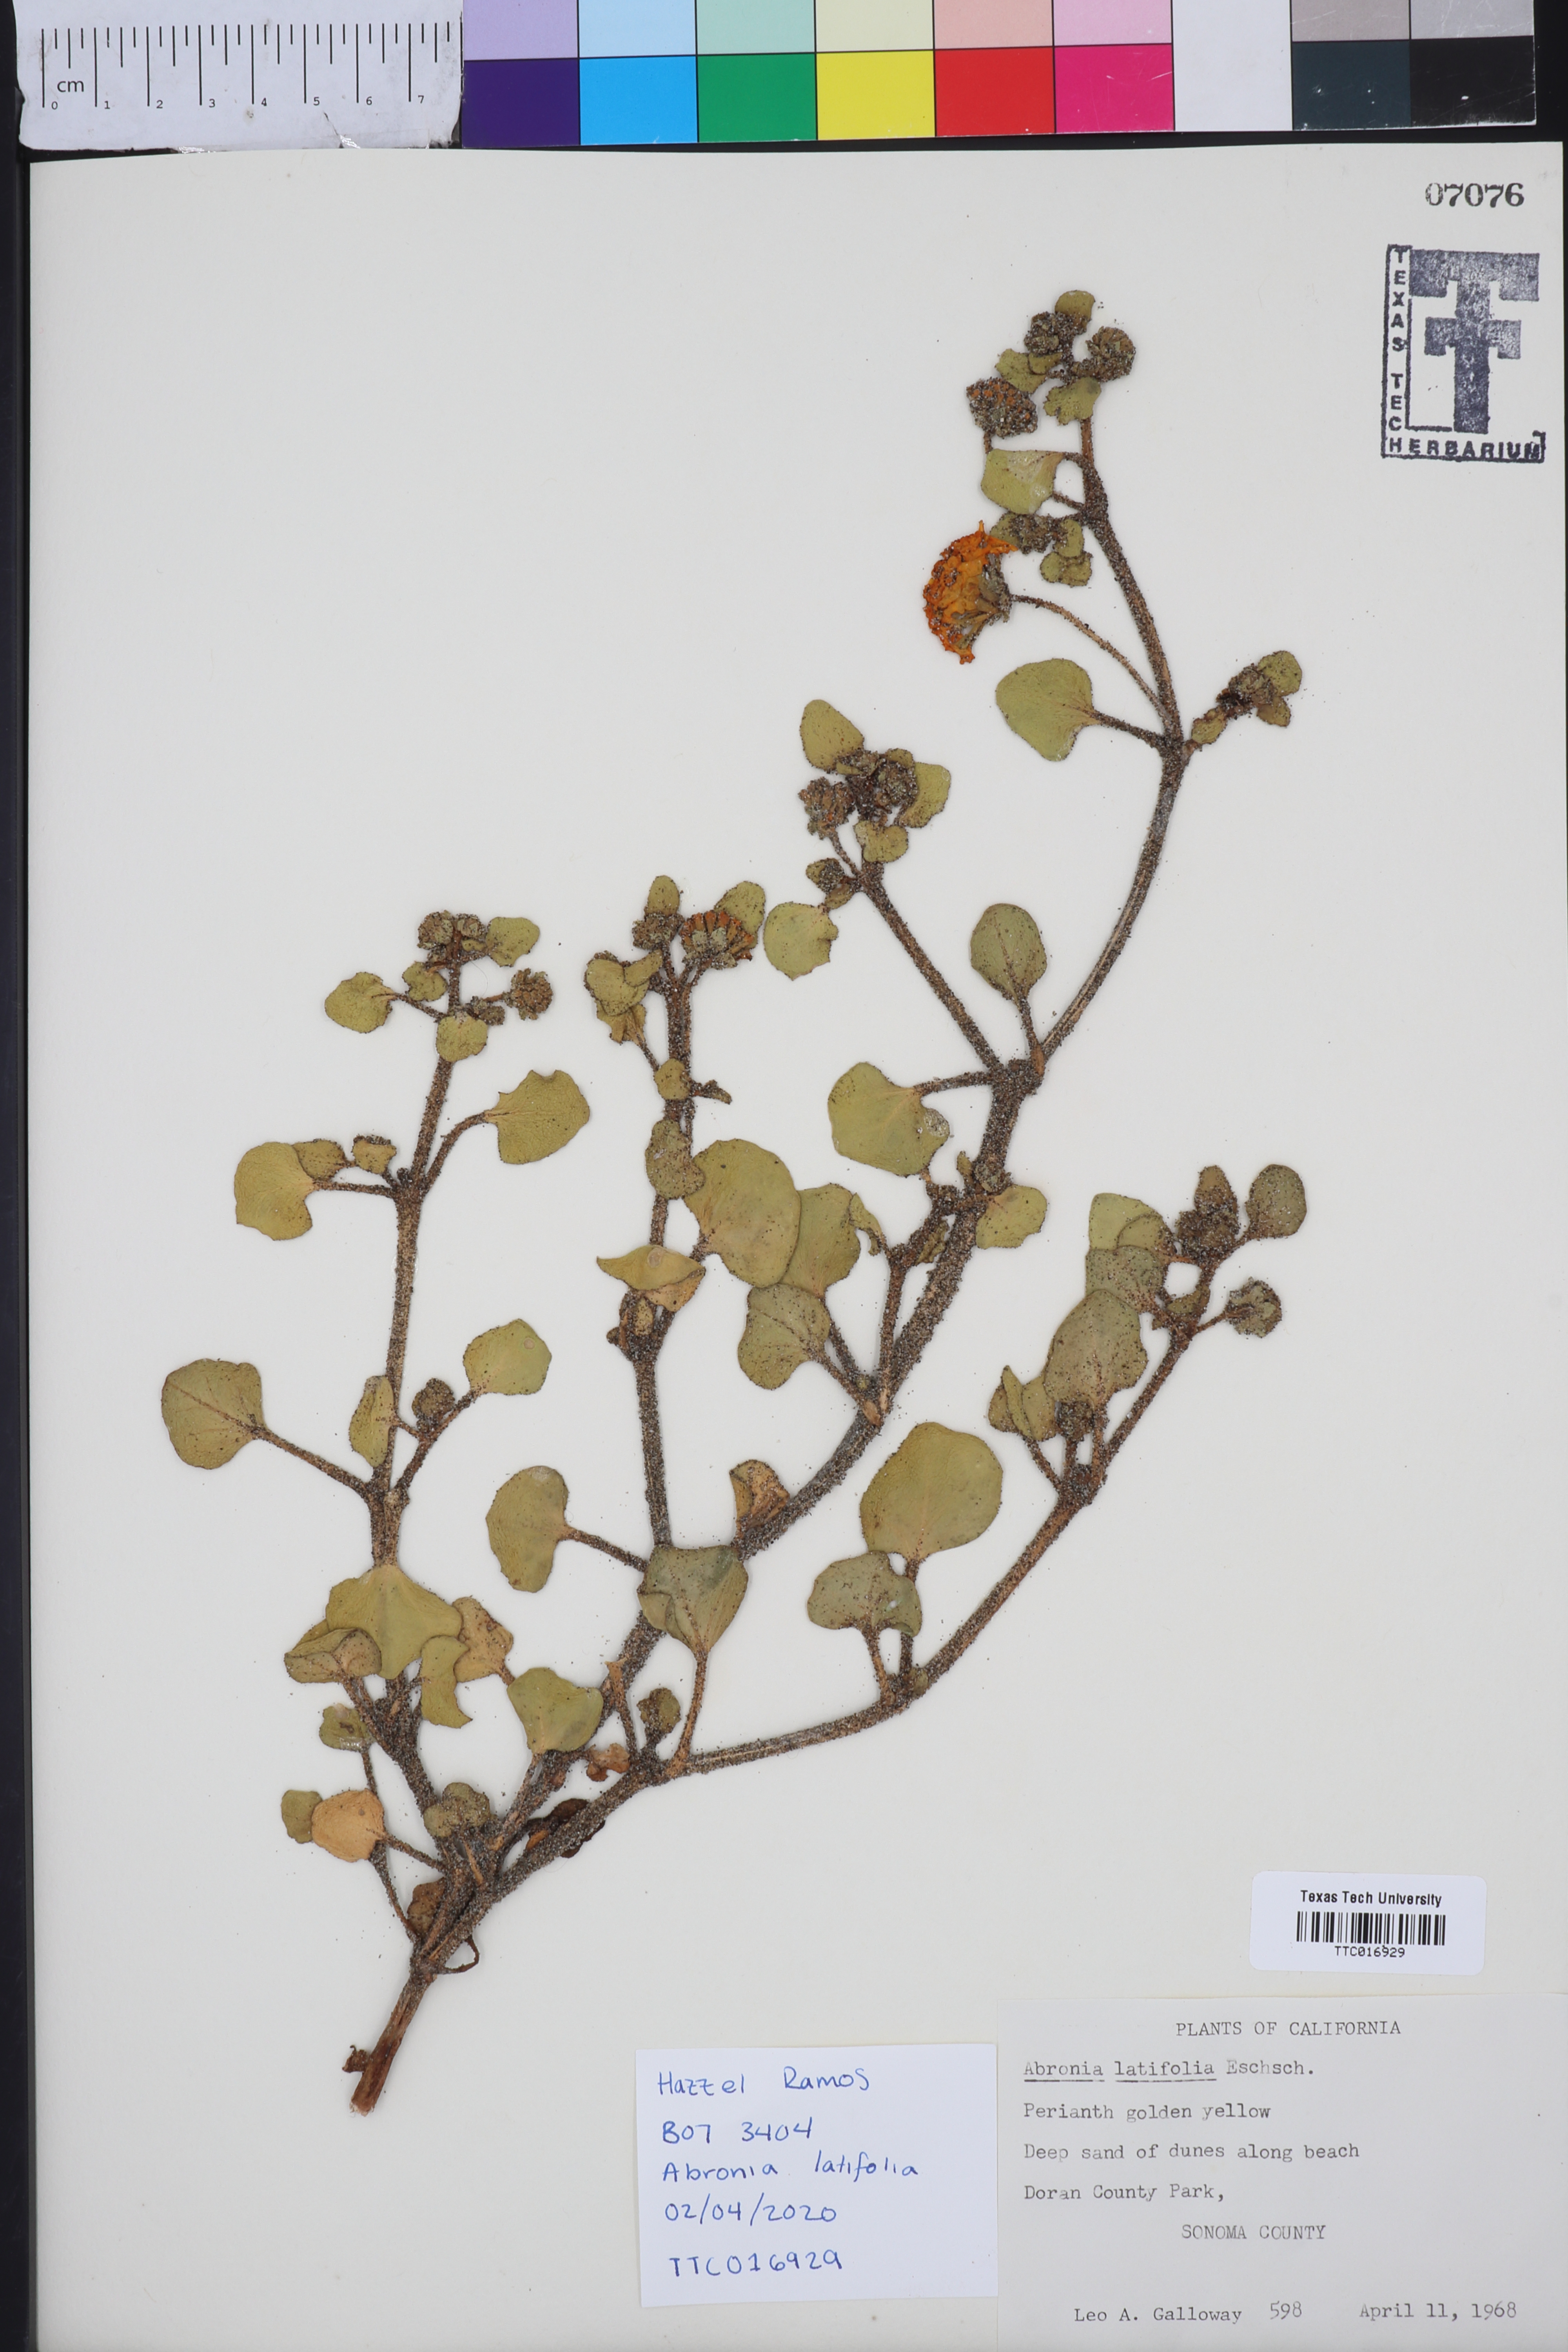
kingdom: Plantae
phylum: Tracheophyta
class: Magnoliopsida
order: Caryophyllales
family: Nyctaginaceae
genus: Abronia
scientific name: Abronia latifolia
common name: Yellow sand-verbena
